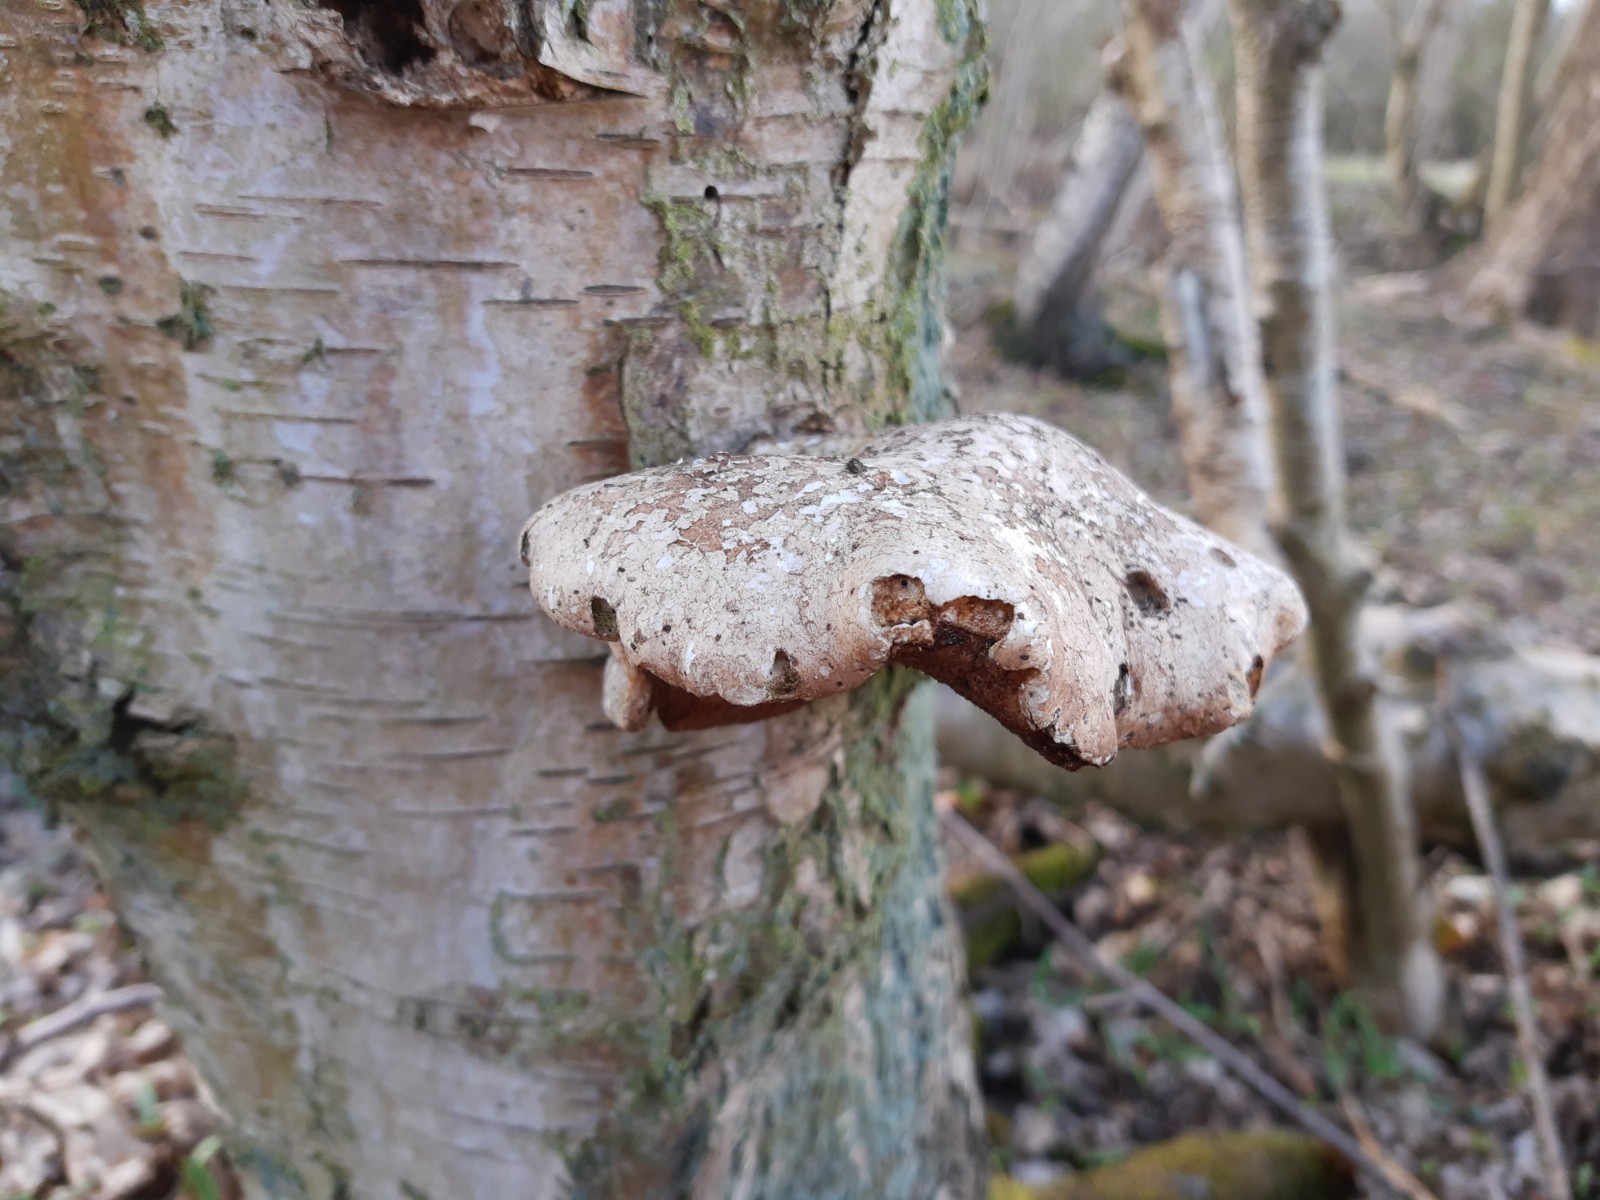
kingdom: Fungi
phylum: Basidiomycota
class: Agaricomycetes
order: Polyporales
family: Fomitopsidaceae
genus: Fomitopsis
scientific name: Fomitopsis betulina
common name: birkeporesvamp
